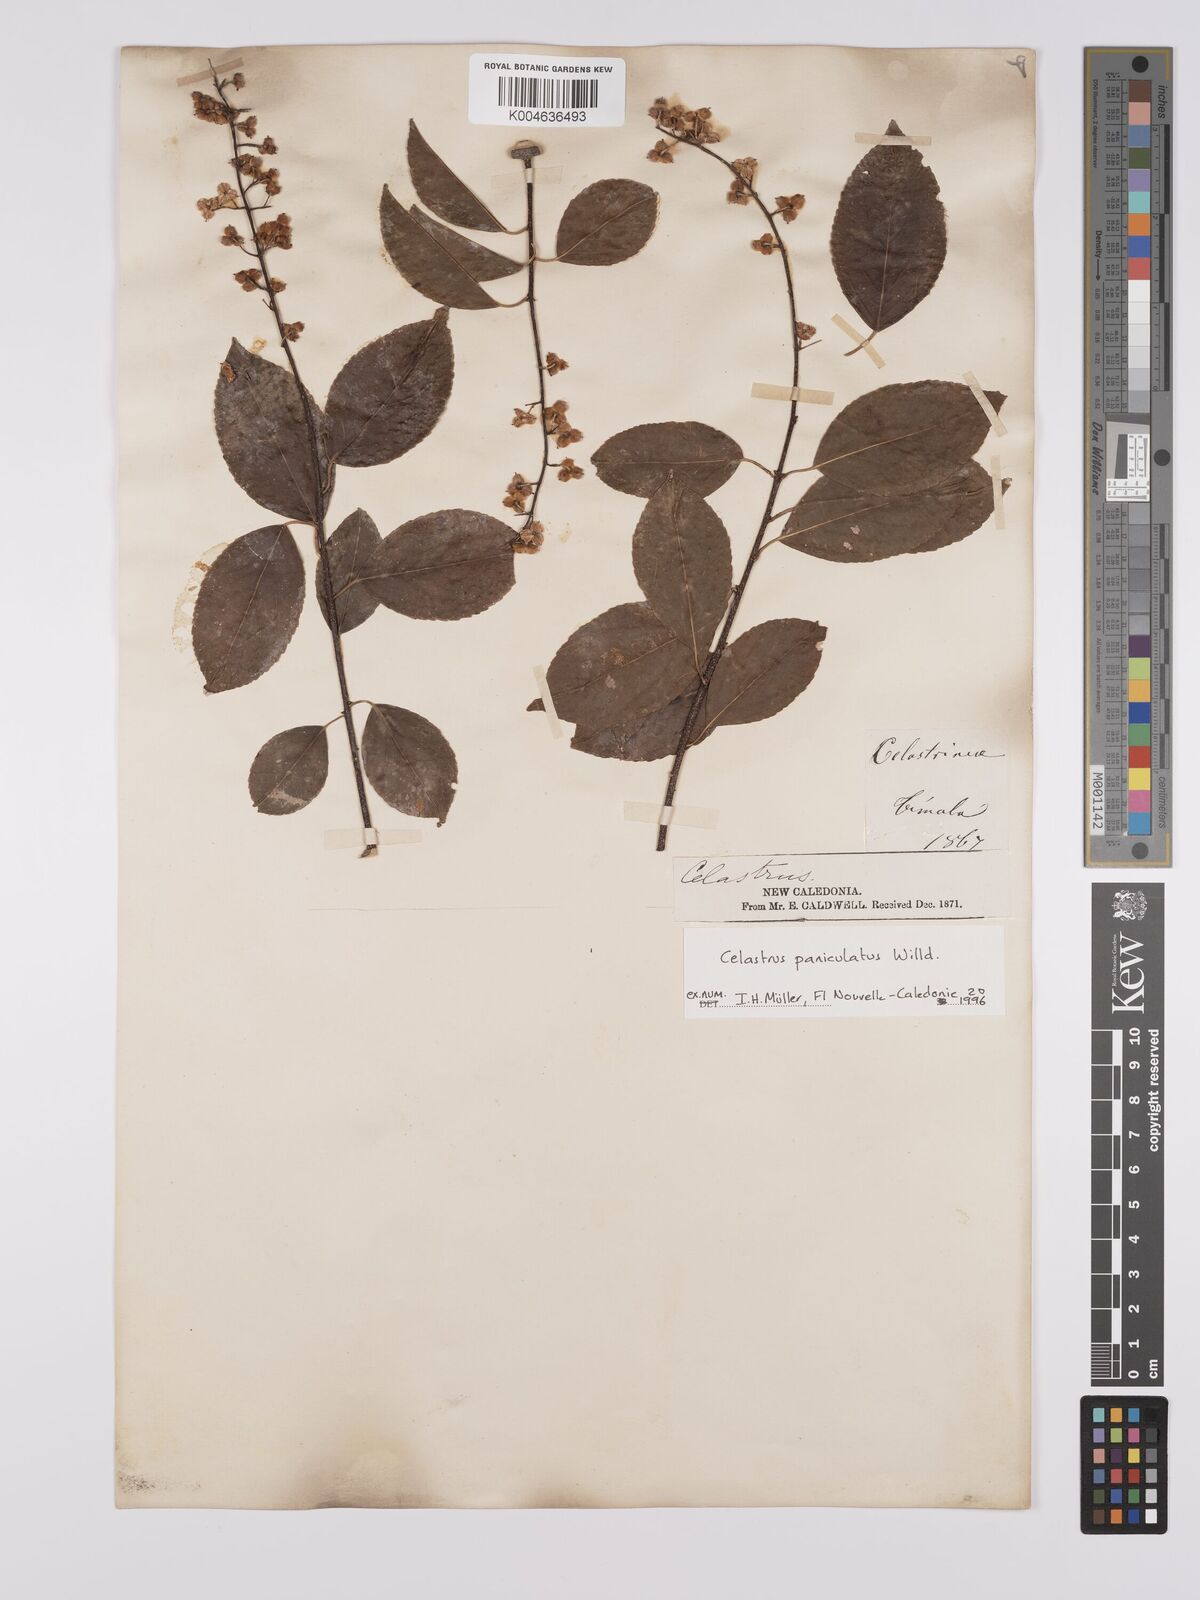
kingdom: Plantae
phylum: Tracheophyta
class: Magnoliopsida
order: Celastrales
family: Celastraceae
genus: Celastrus
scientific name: Celastrus paniculatus
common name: Oriental bittersweet; staff vine
